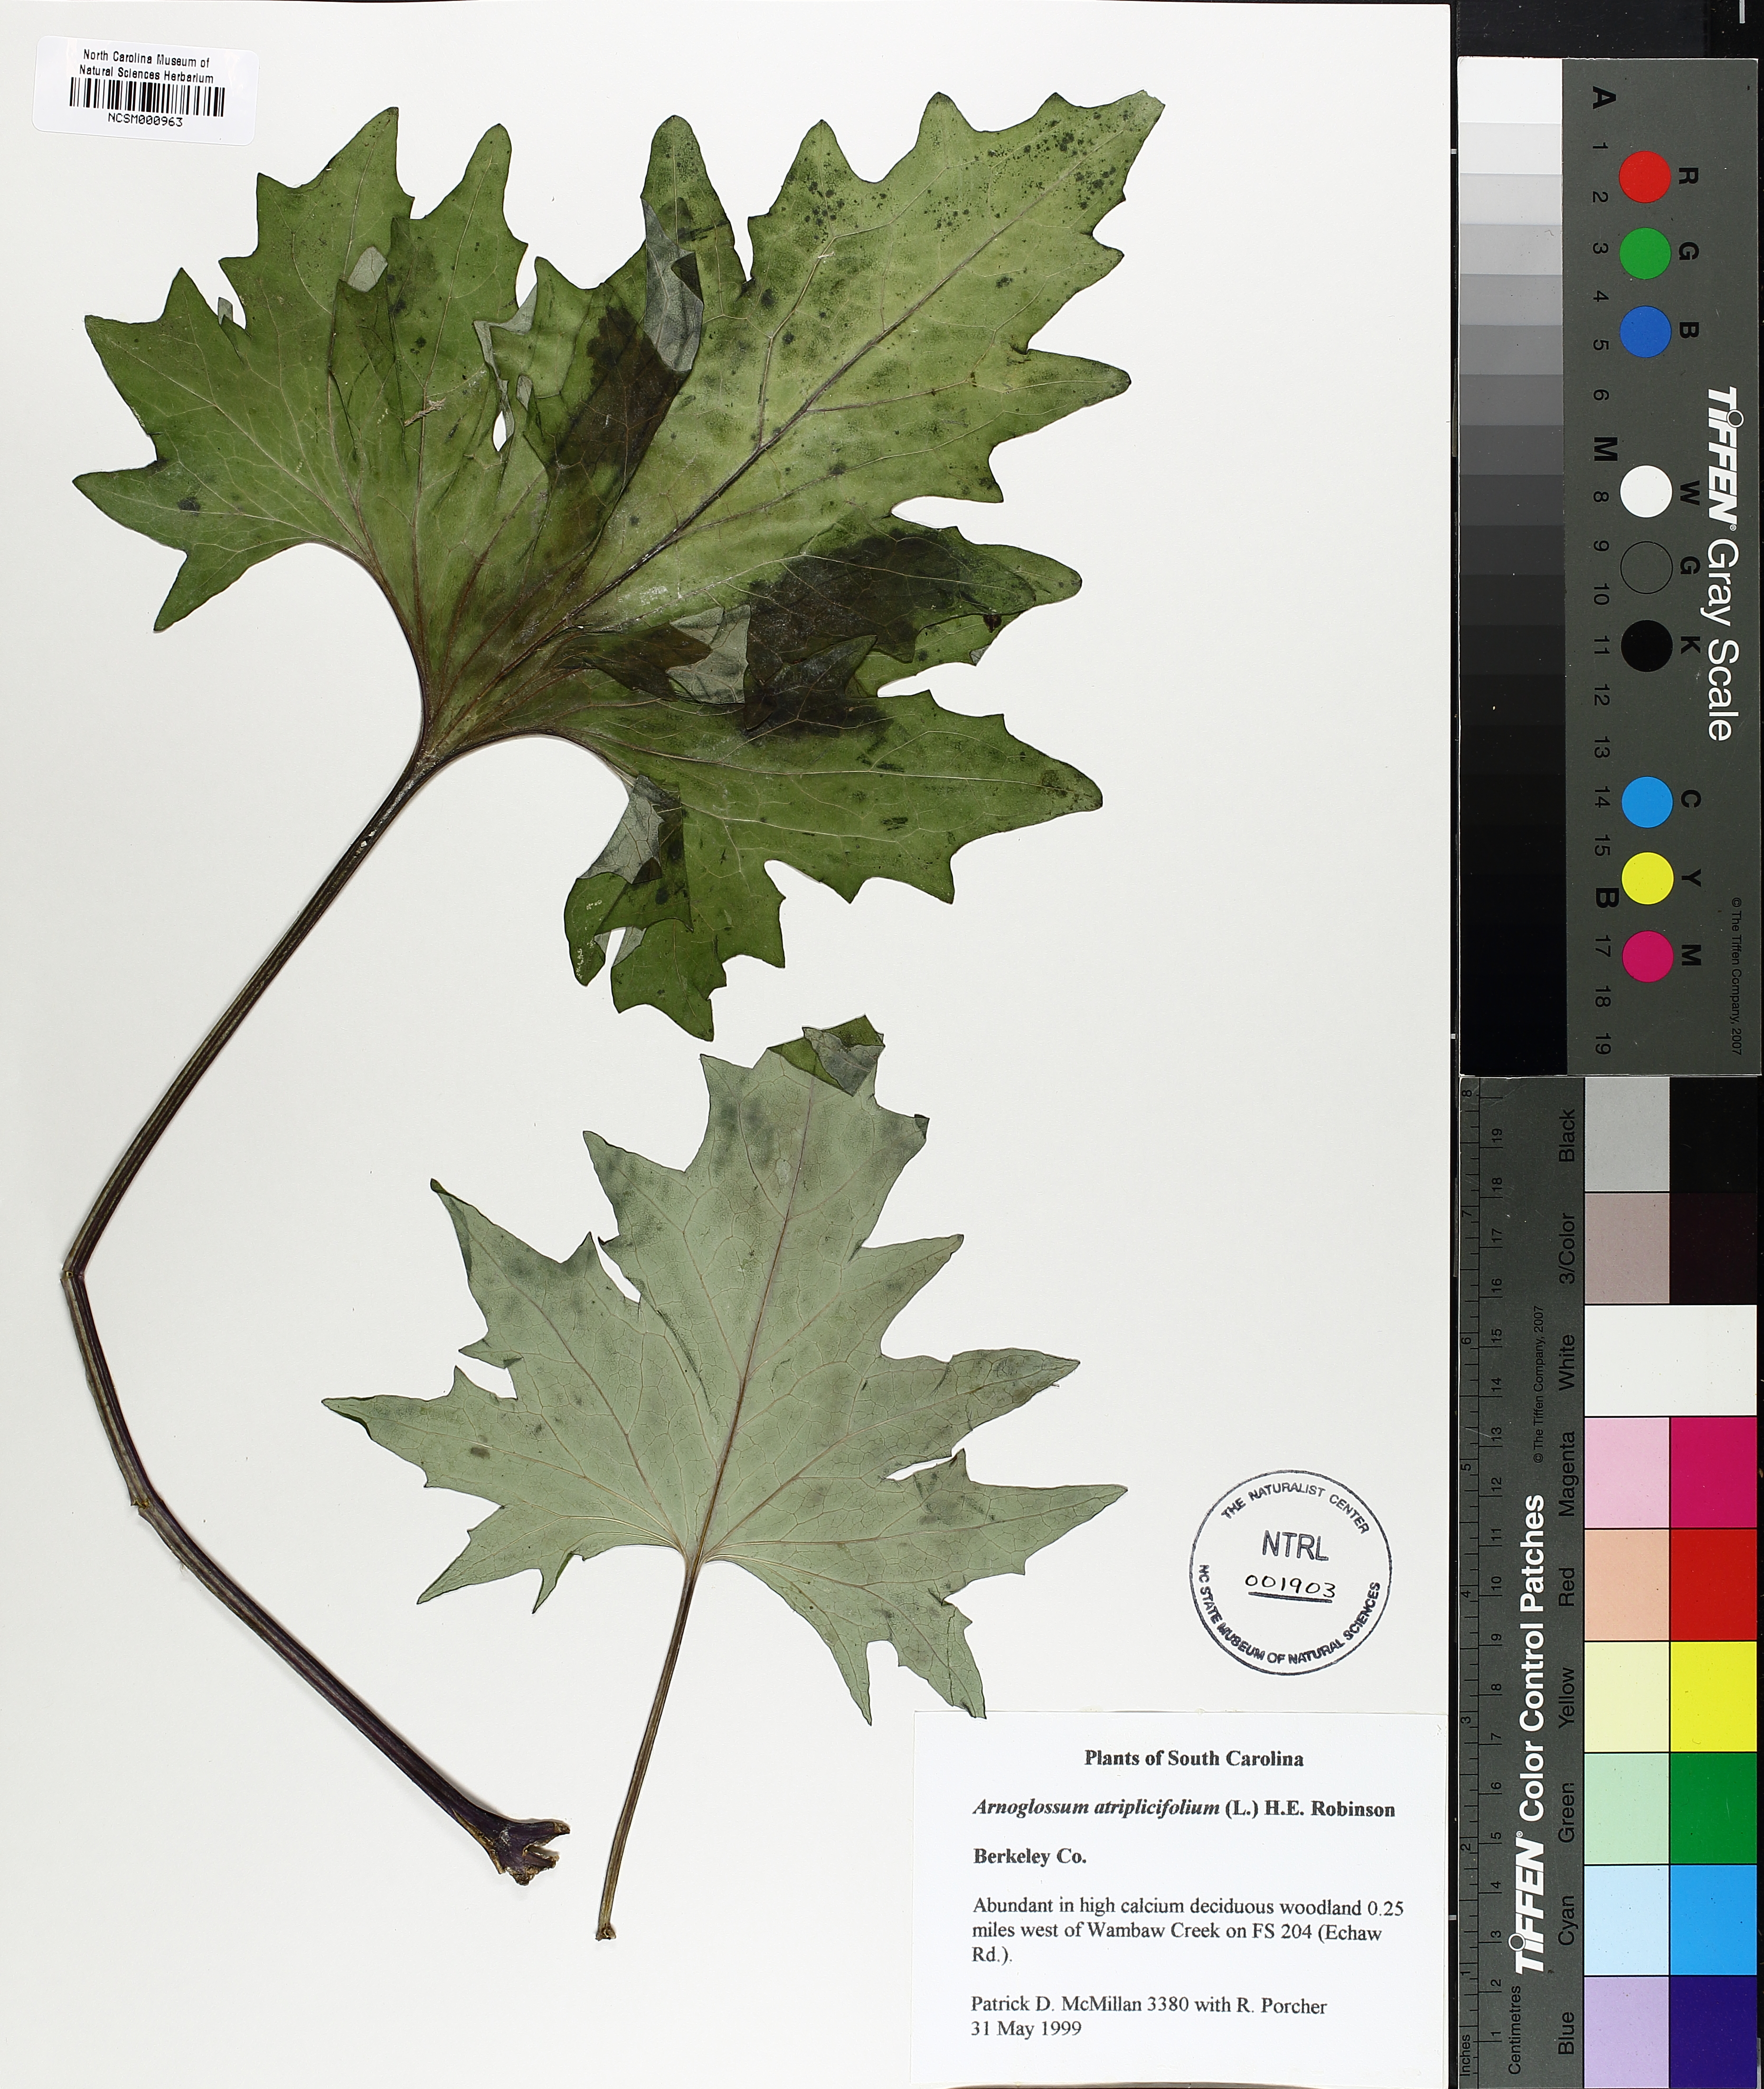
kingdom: Plantae
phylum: Tracheophyta
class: Magnoliopsida
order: Asterales
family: Asteraceae
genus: Arnoglossum
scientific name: Arnoglossum atriplicifolium
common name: Pale indian-plantain
